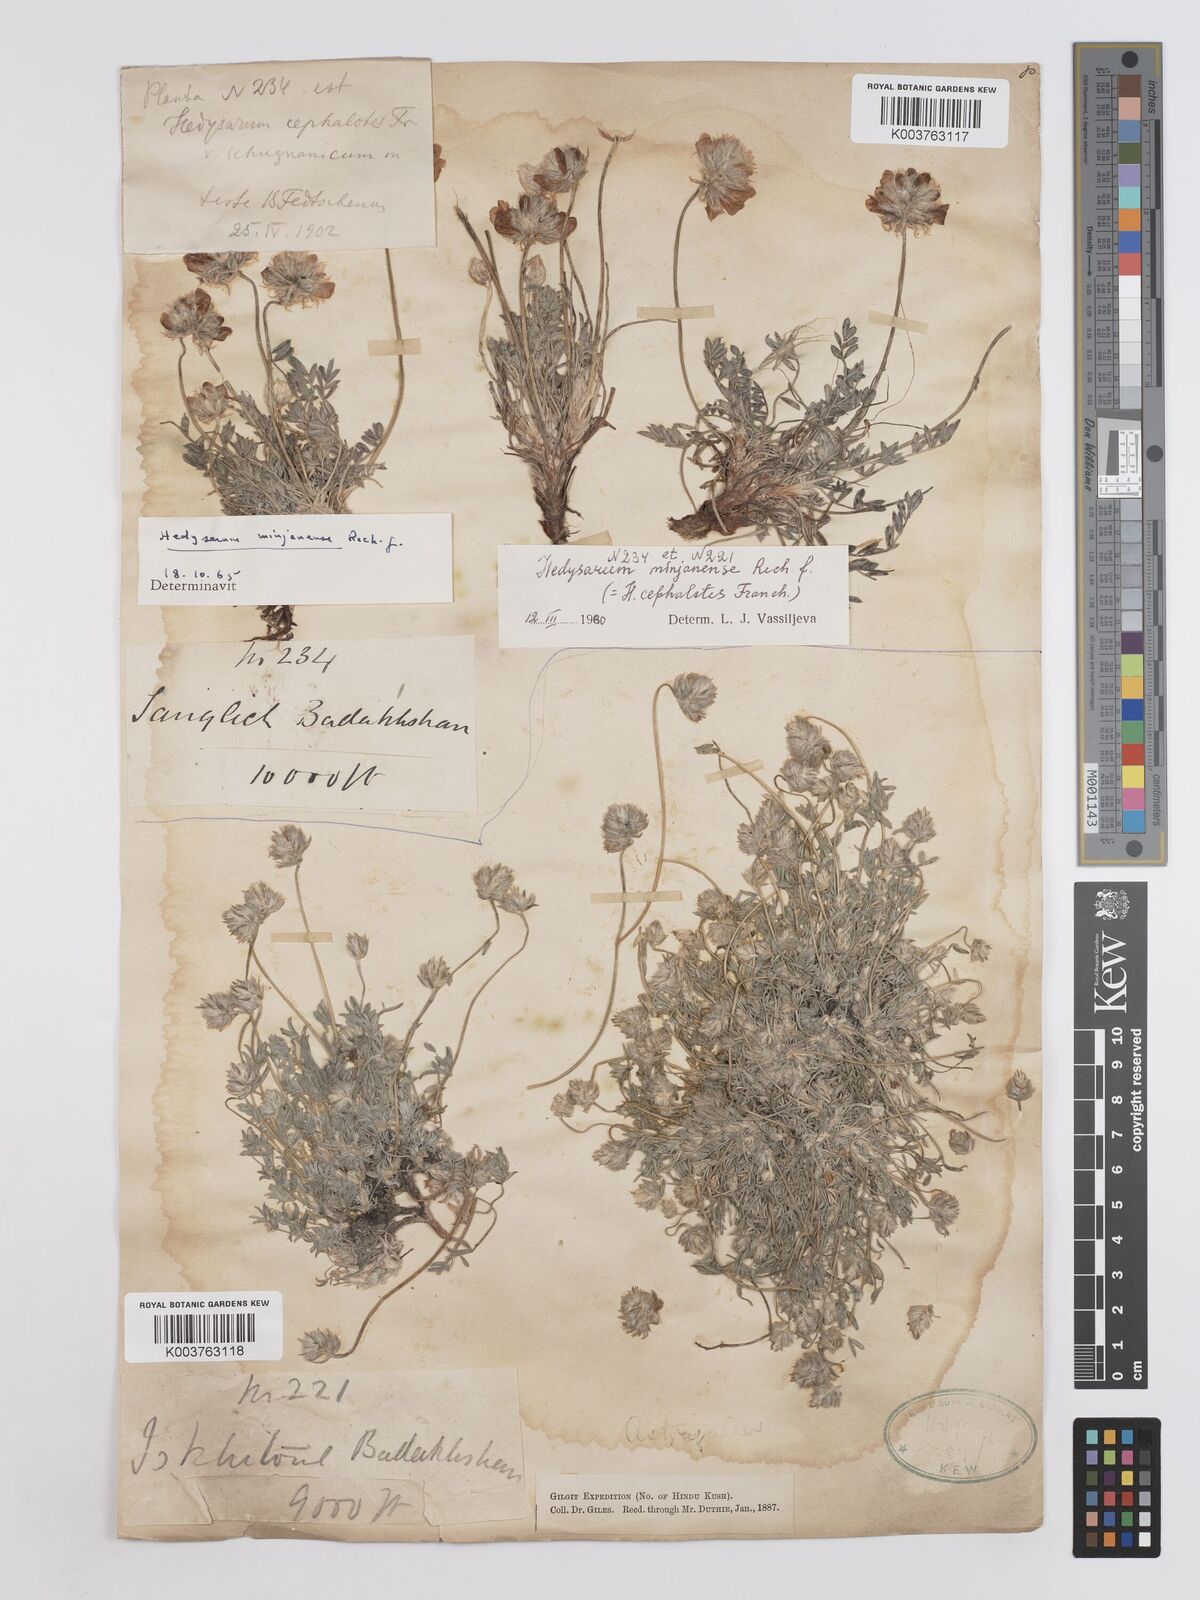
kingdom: Plantae
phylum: Tracheophyta
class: Magnoliopsida
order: Fabales
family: Fabaceae
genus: Hedysarum
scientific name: Hedysarum microcalyx
